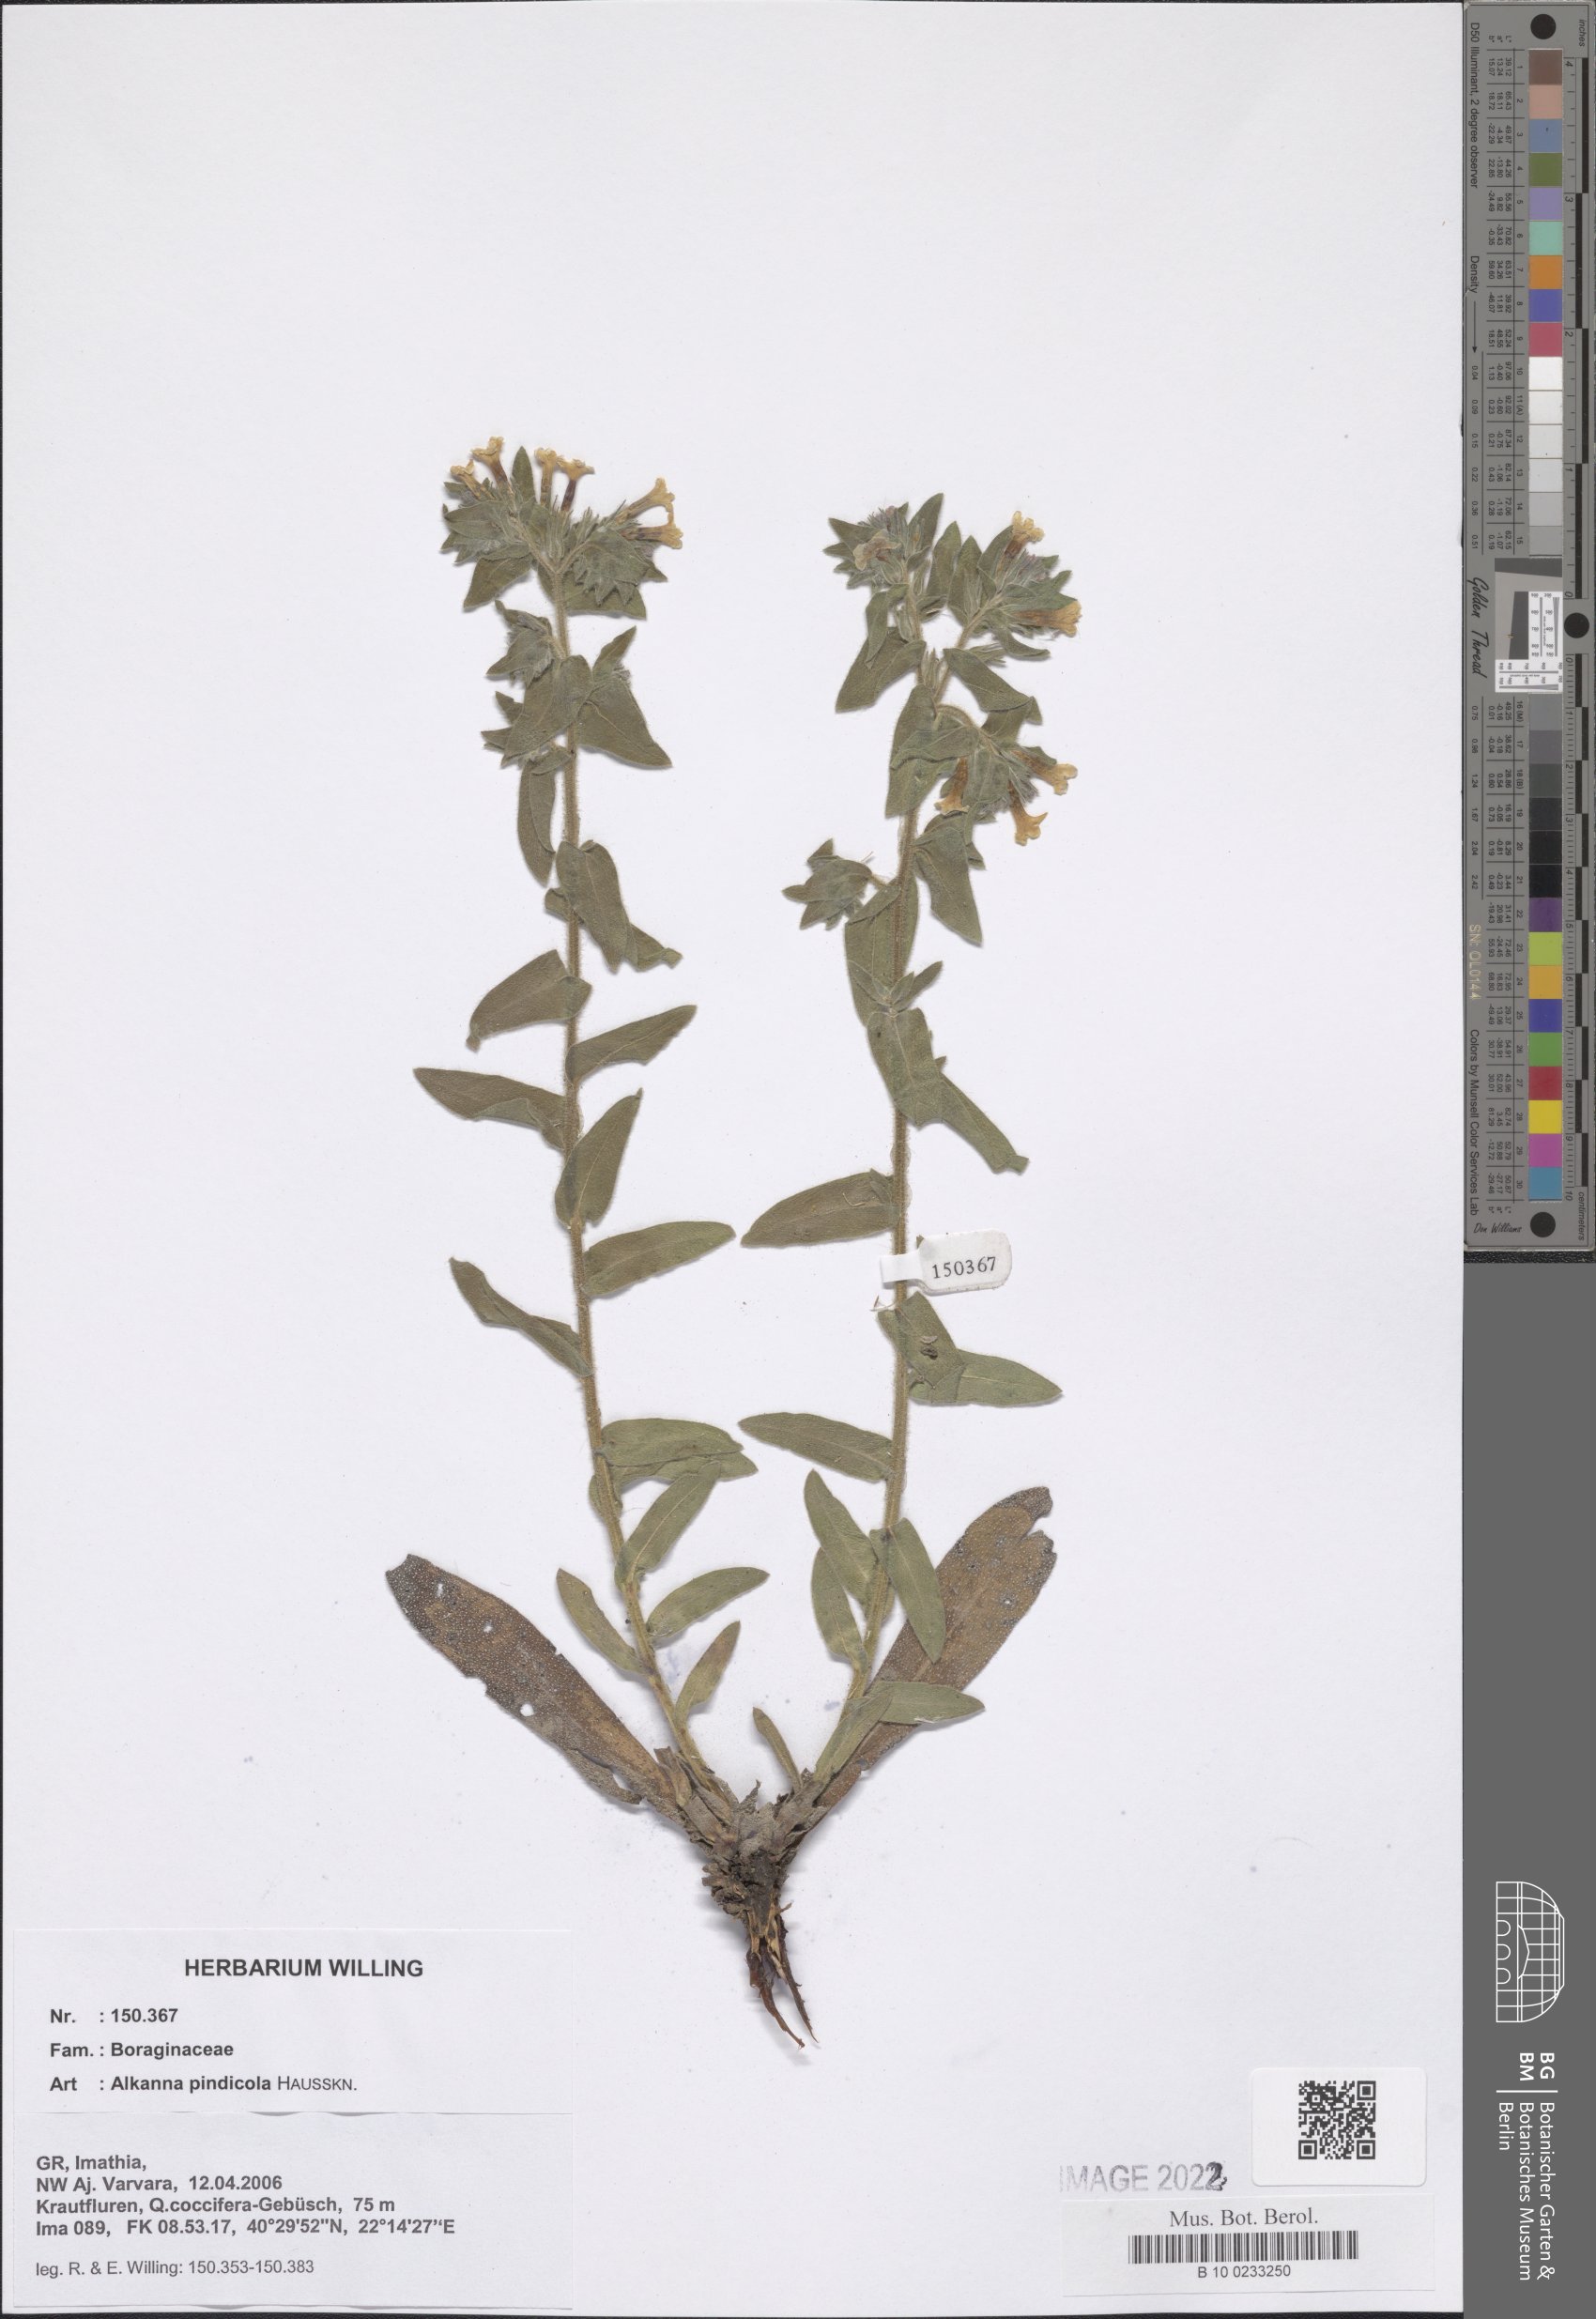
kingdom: Plantae
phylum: Tracheophyta
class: Magnoliopsida
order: Boraginales
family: Boraginaceae
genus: Alkanna
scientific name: Alkanna pindicola
